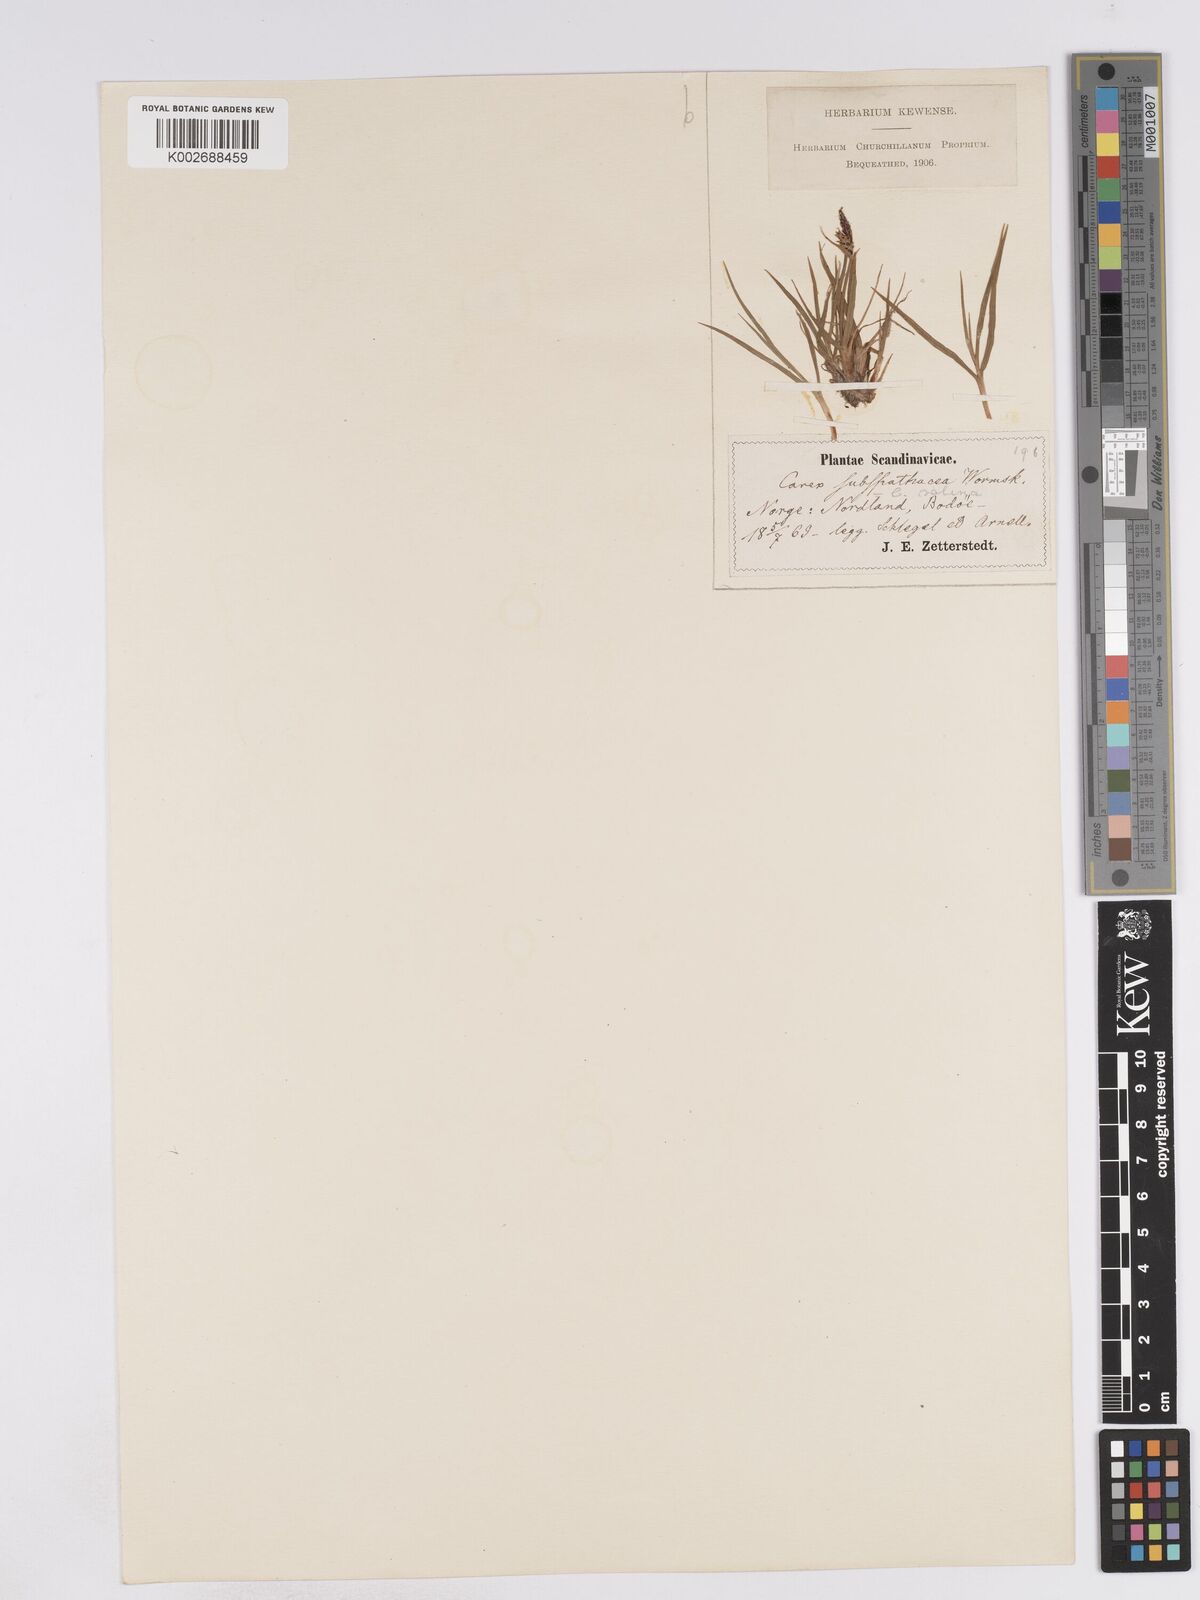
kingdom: Plantae
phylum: Tracheophyta
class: Liliopsida
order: Poales
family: Cyperaceae
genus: Carex
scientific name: Carex subspathacea
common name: Hoppner's sedge
